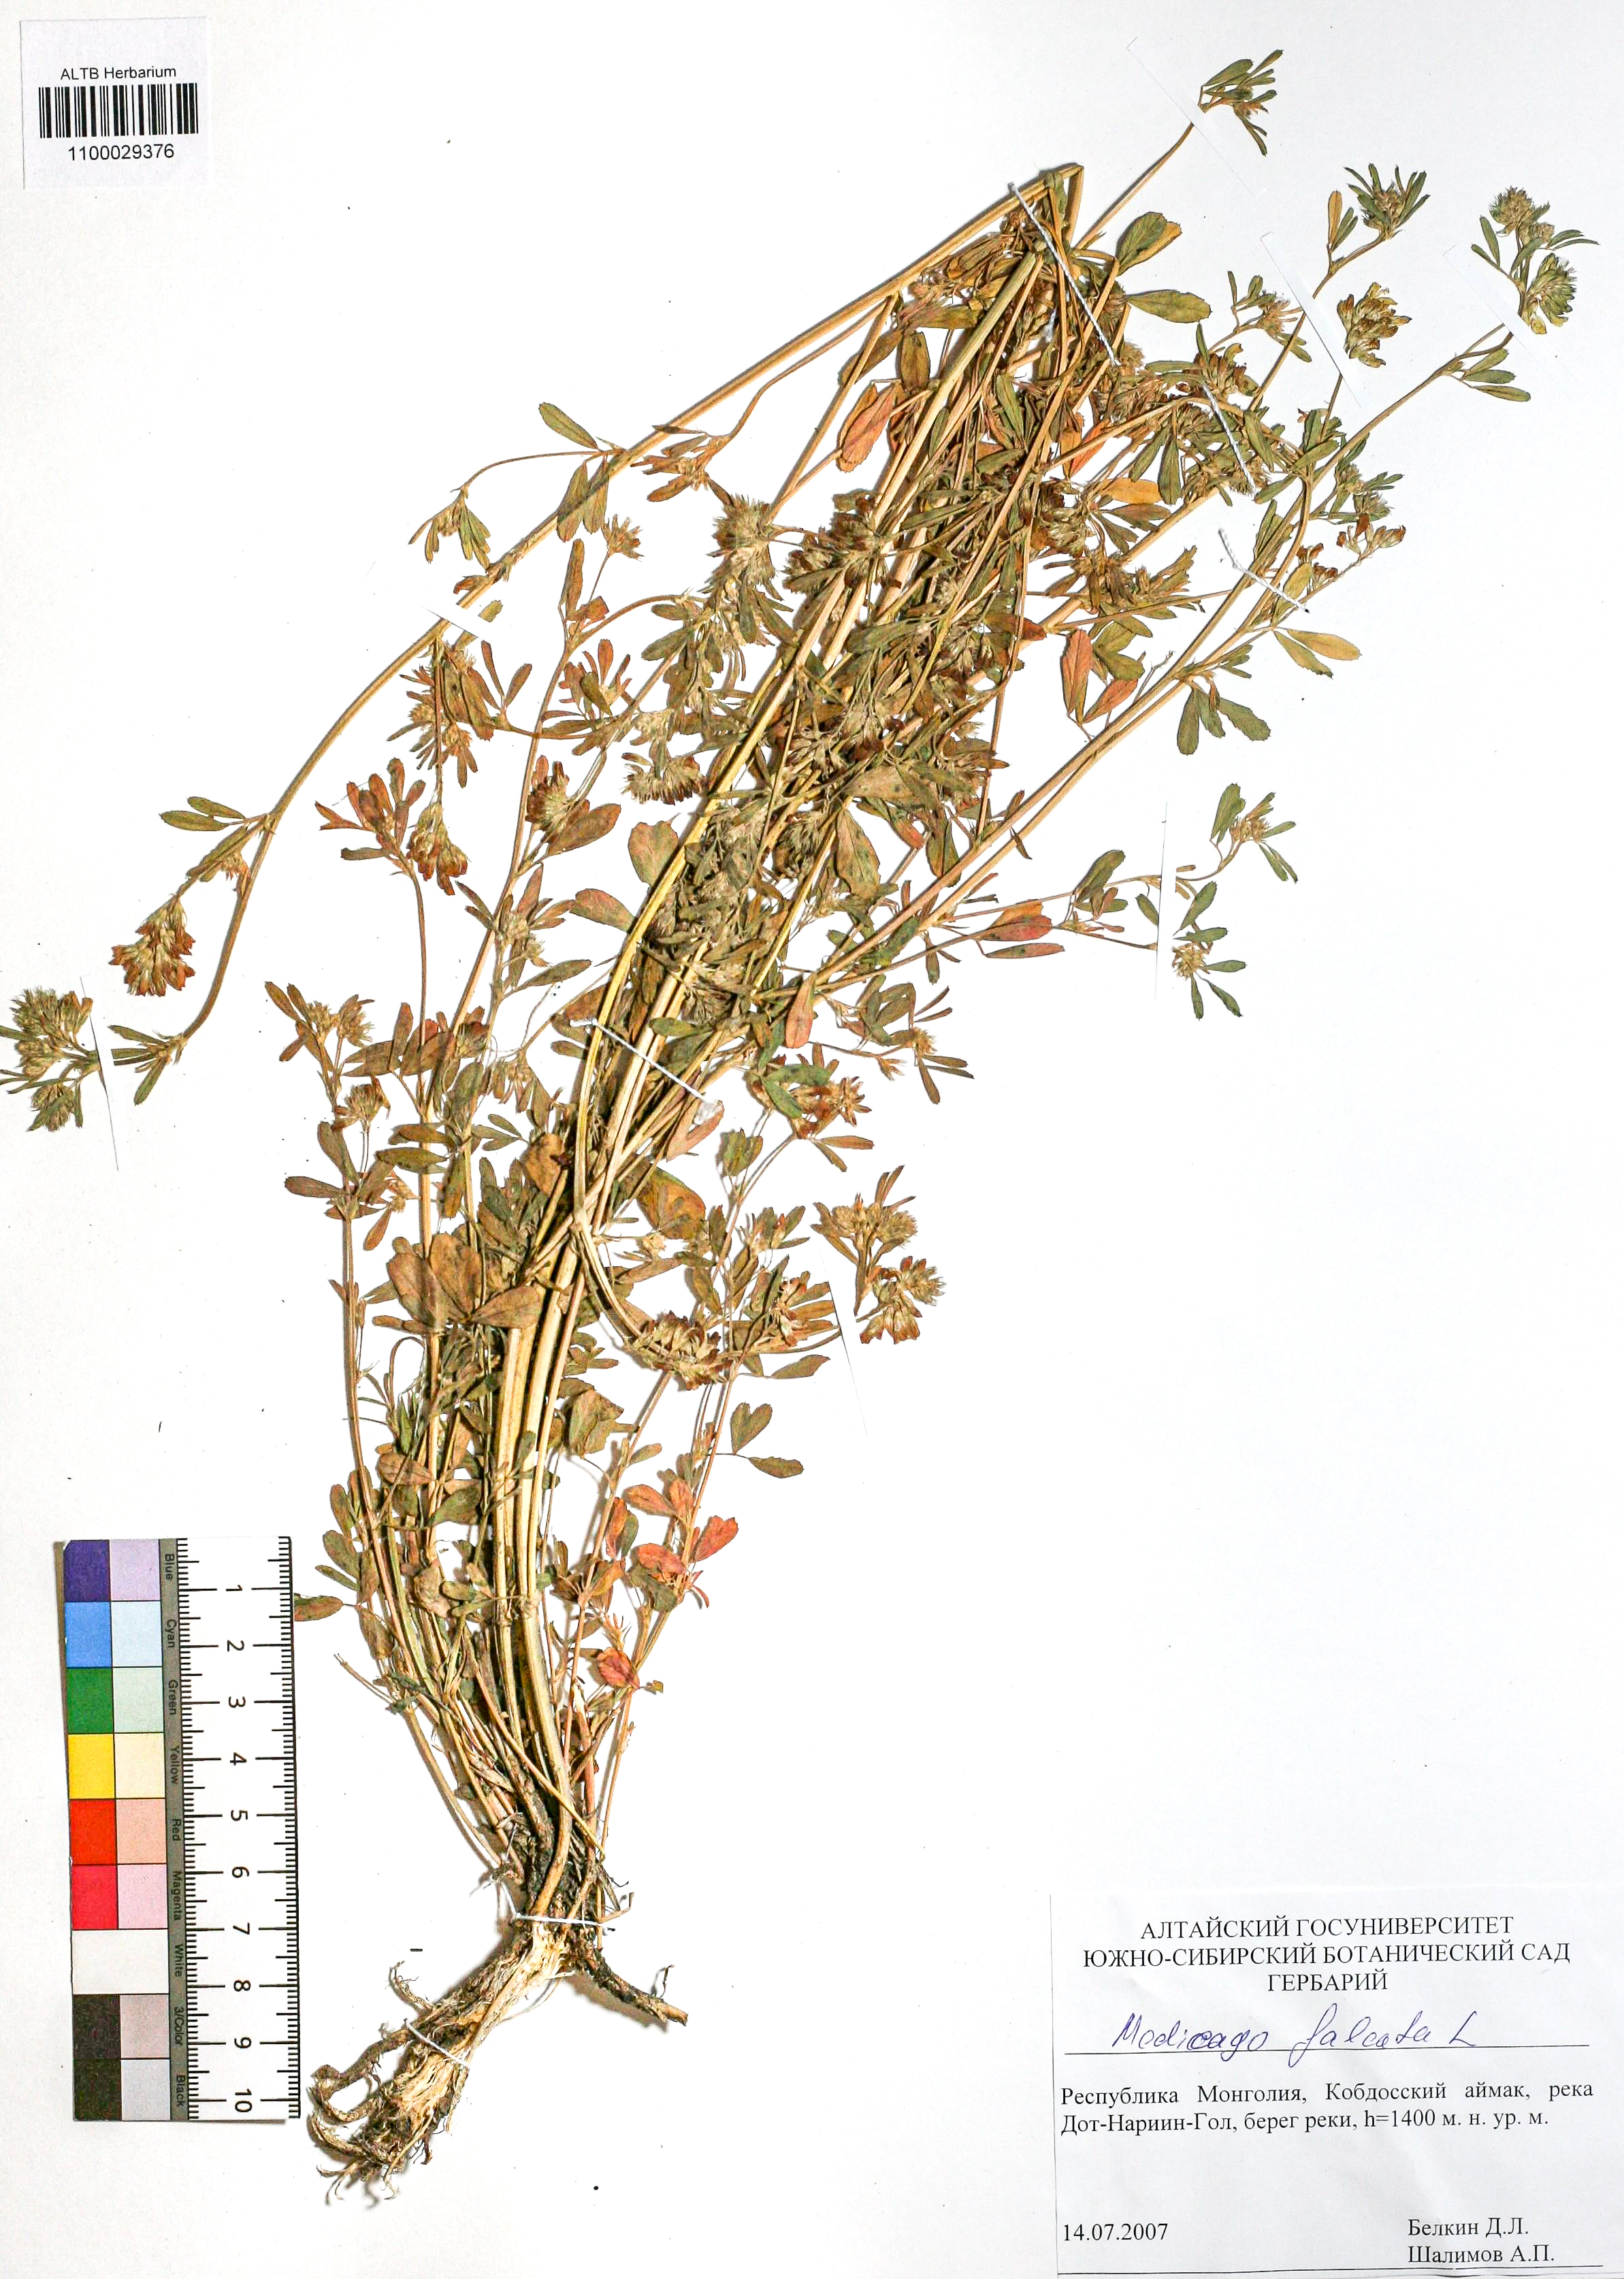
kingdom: Plantae
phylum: Tracheophyta
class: Magnoliopsida
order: Fabales
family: Fabaceae
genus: Medicago
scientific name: Medicago falcata
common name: Sickle medick
